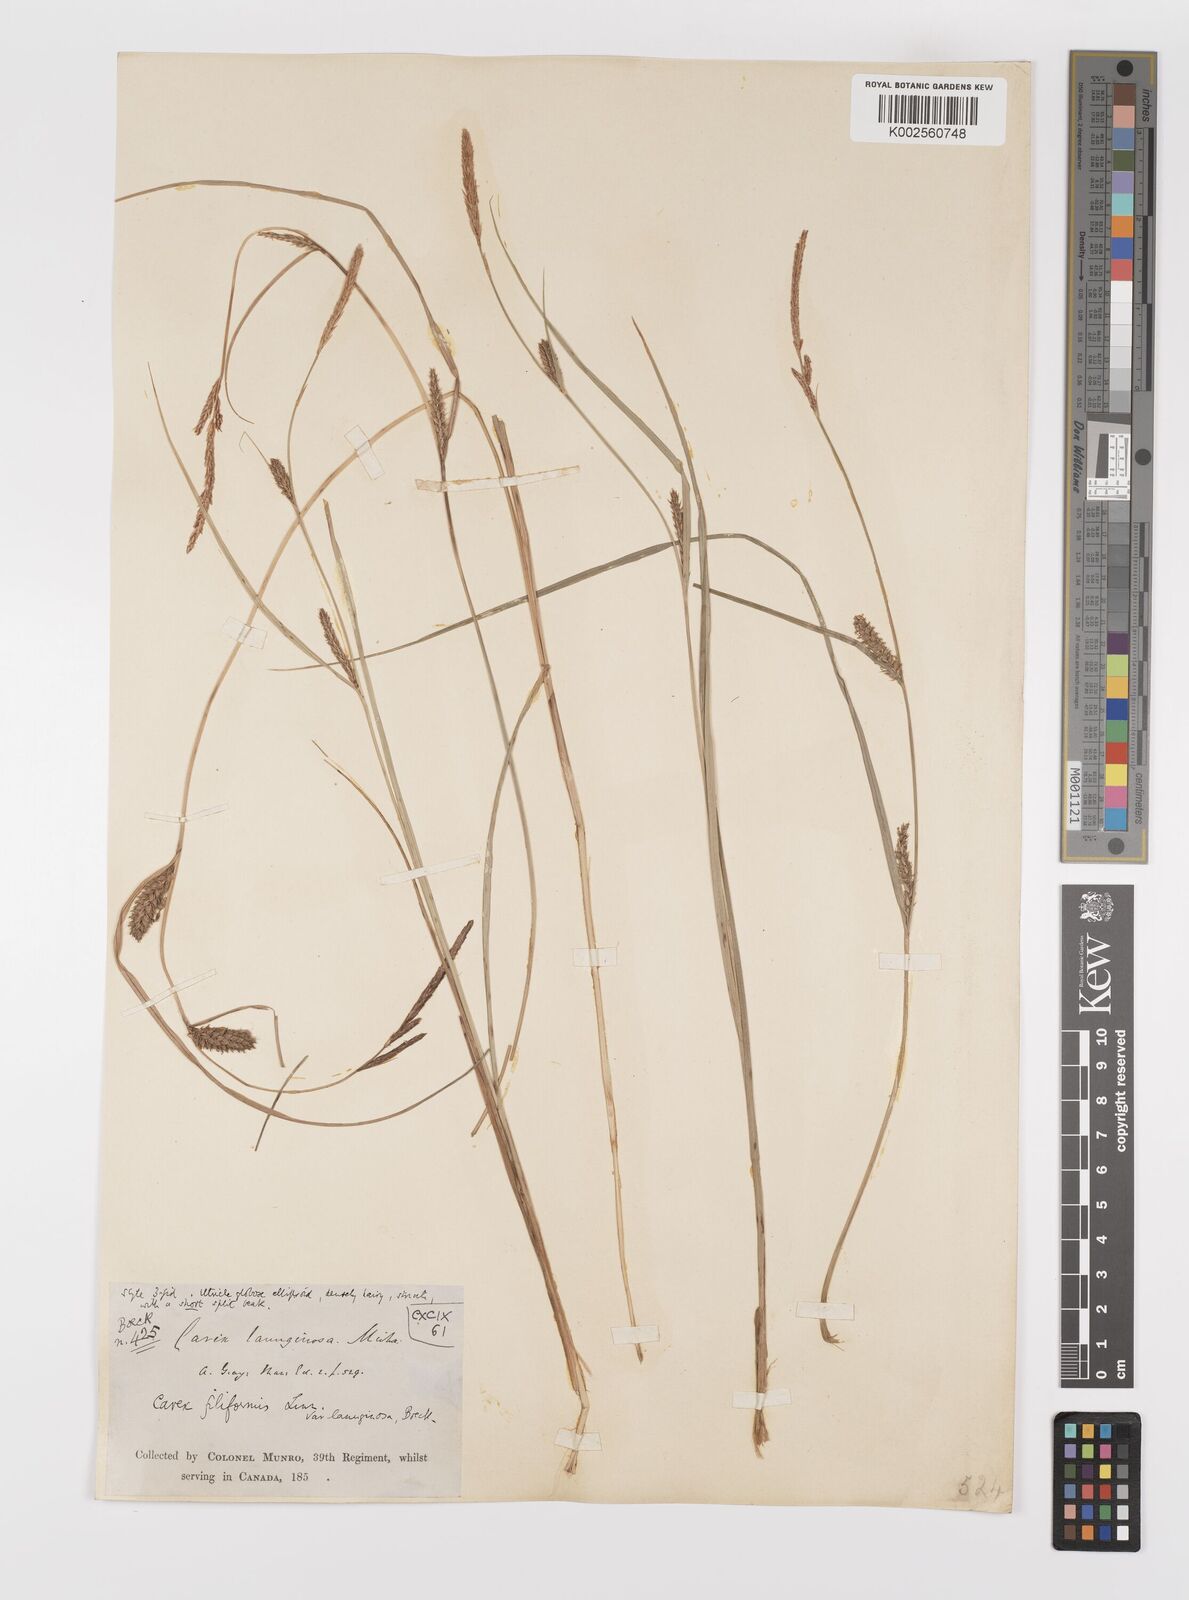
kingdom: Plantae
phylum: Tracheophyta
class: Liliopsida
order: Poales
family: Cyperaceae
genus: Carex
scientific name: Carex lasiocarpa
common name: Slender sedge
